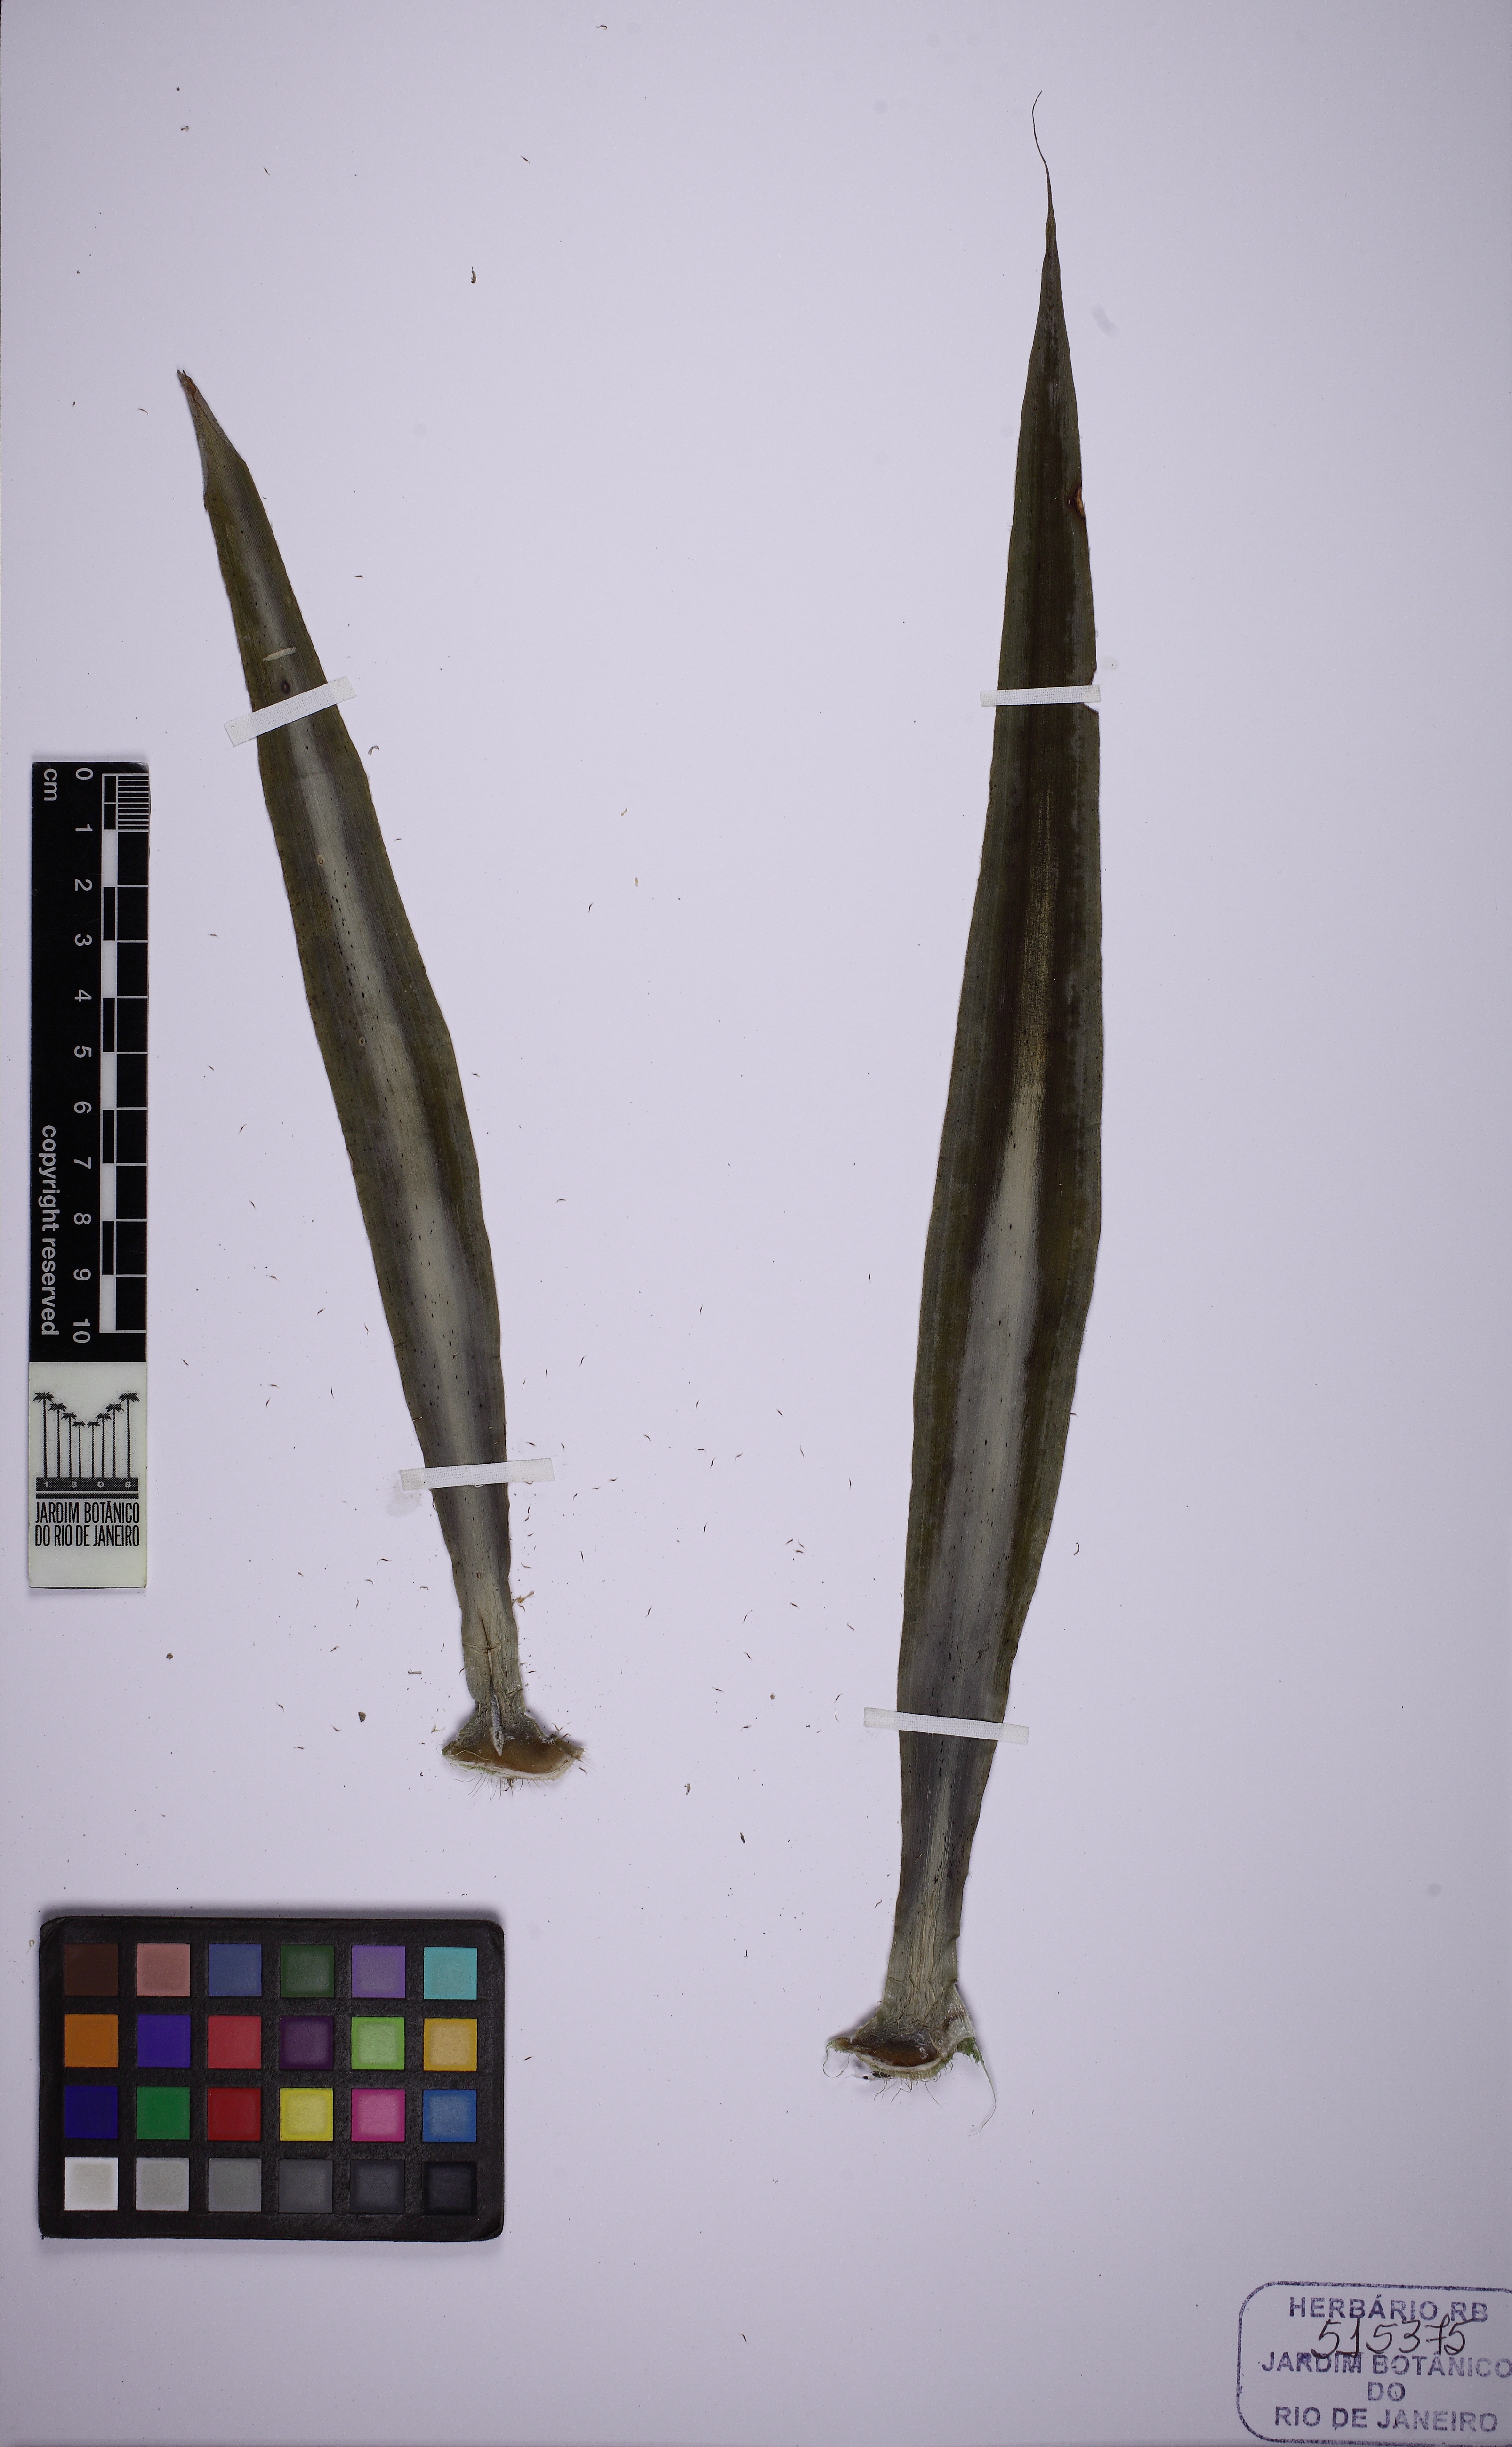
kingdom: Plantae
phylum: Tracheophyta
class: Liliopsida
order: Poales
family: Bromeliaceae
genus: Fosterella
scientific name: Fosterella bodoquenensis
